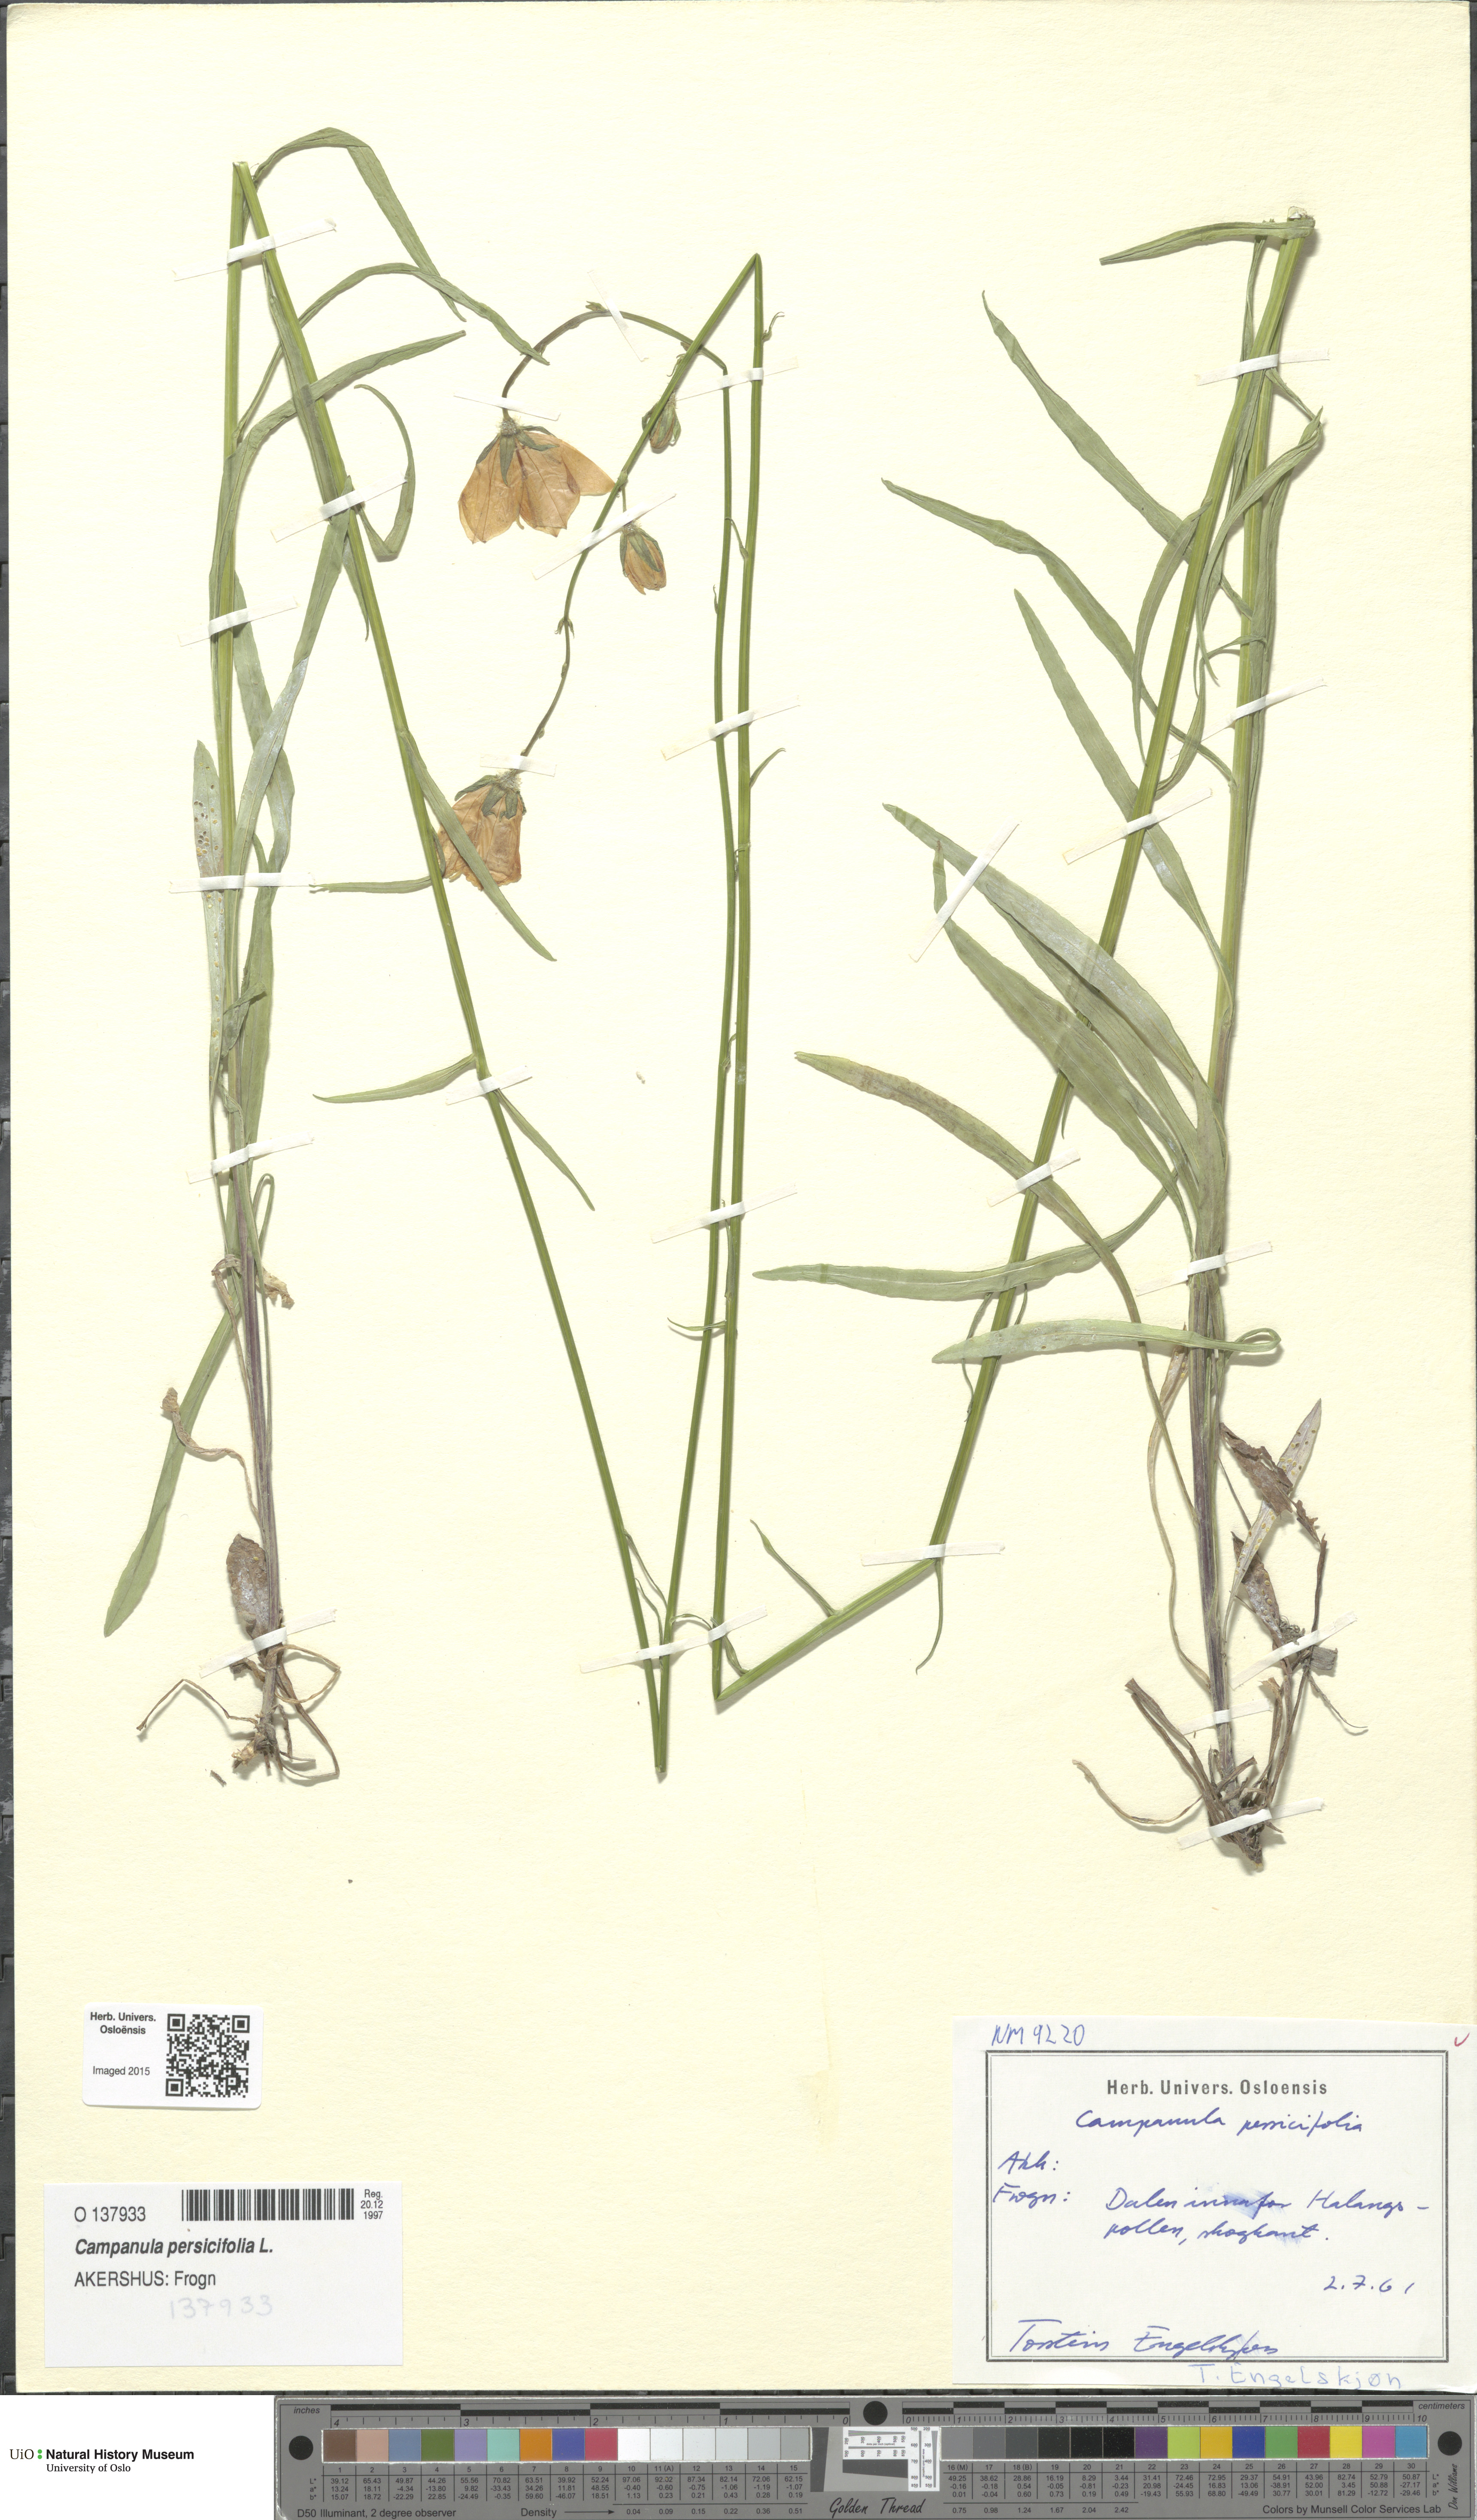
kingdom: Plantae
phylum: Tracheophyta
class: Magnoliopsida
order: Asterales
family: Campanulaceae
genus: Campanula
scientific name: Campanula persicifolia
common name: Peach-leaved bellflower
